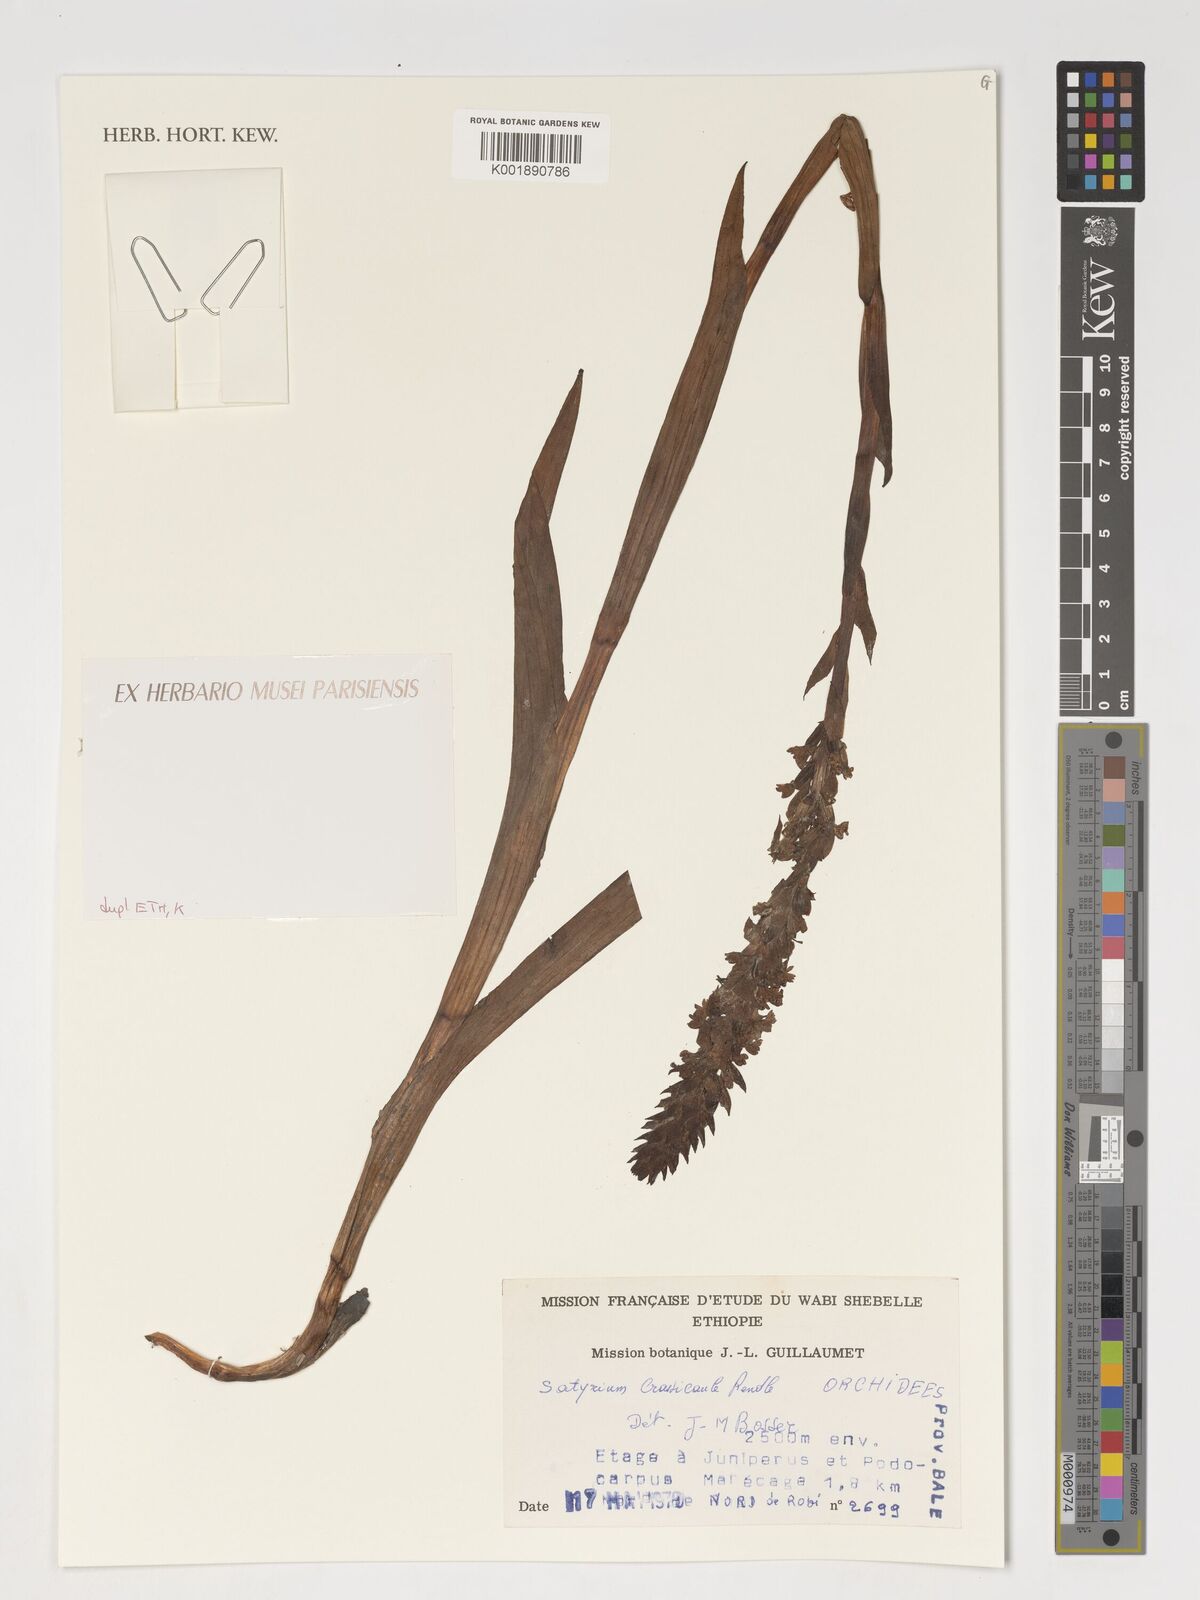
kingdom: Plantae
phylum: Tracheophyta
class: Liliopsida
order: Asparagales
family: Orchidaceae
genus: Satyrium
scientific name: Satyrium crassicaule
